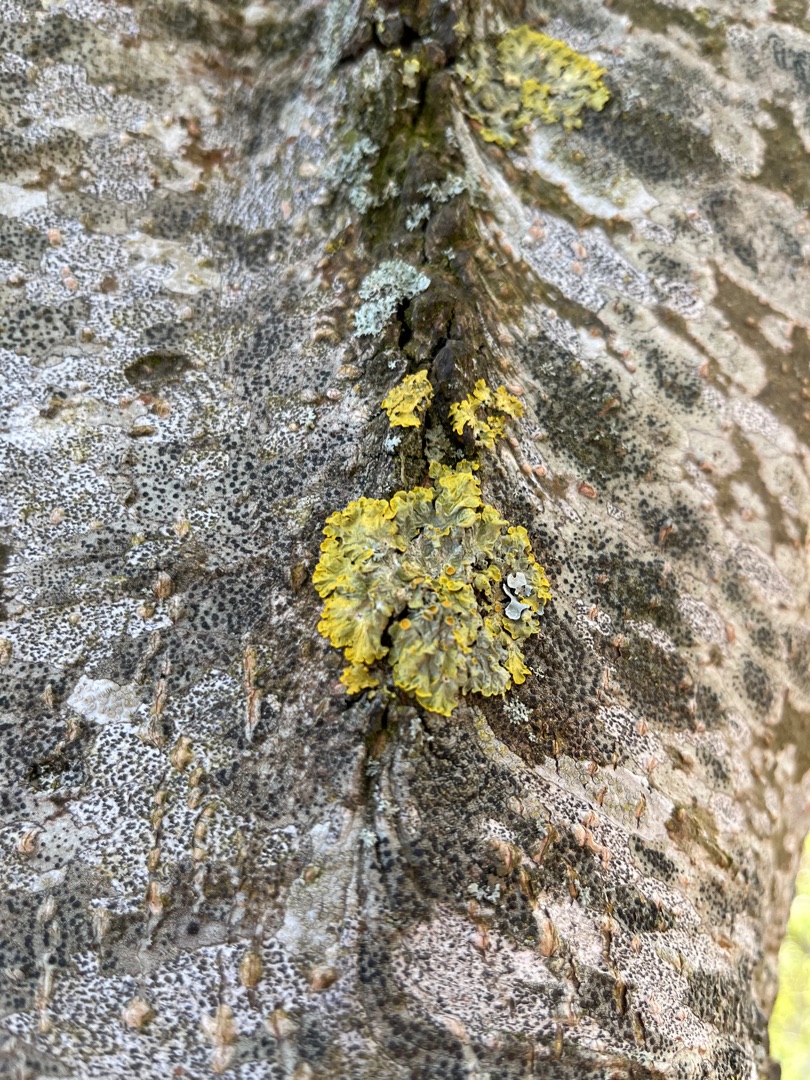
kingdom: Fungi
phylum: Ascomycota
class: Lecanoromycetes
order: Teloschistales
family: Teloschistaceae
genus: Xanthoria
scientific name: Xanthoria parietina
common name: Almindelig væggelav
